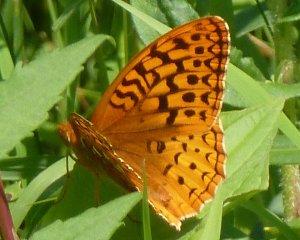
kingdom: Animalia
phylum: Arthropoda
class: Insecta
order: Lepidoptera
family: Nymphalidae
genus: Speyeria
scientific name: Speyeria aphrodite
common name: Aphrodite Fritillary
